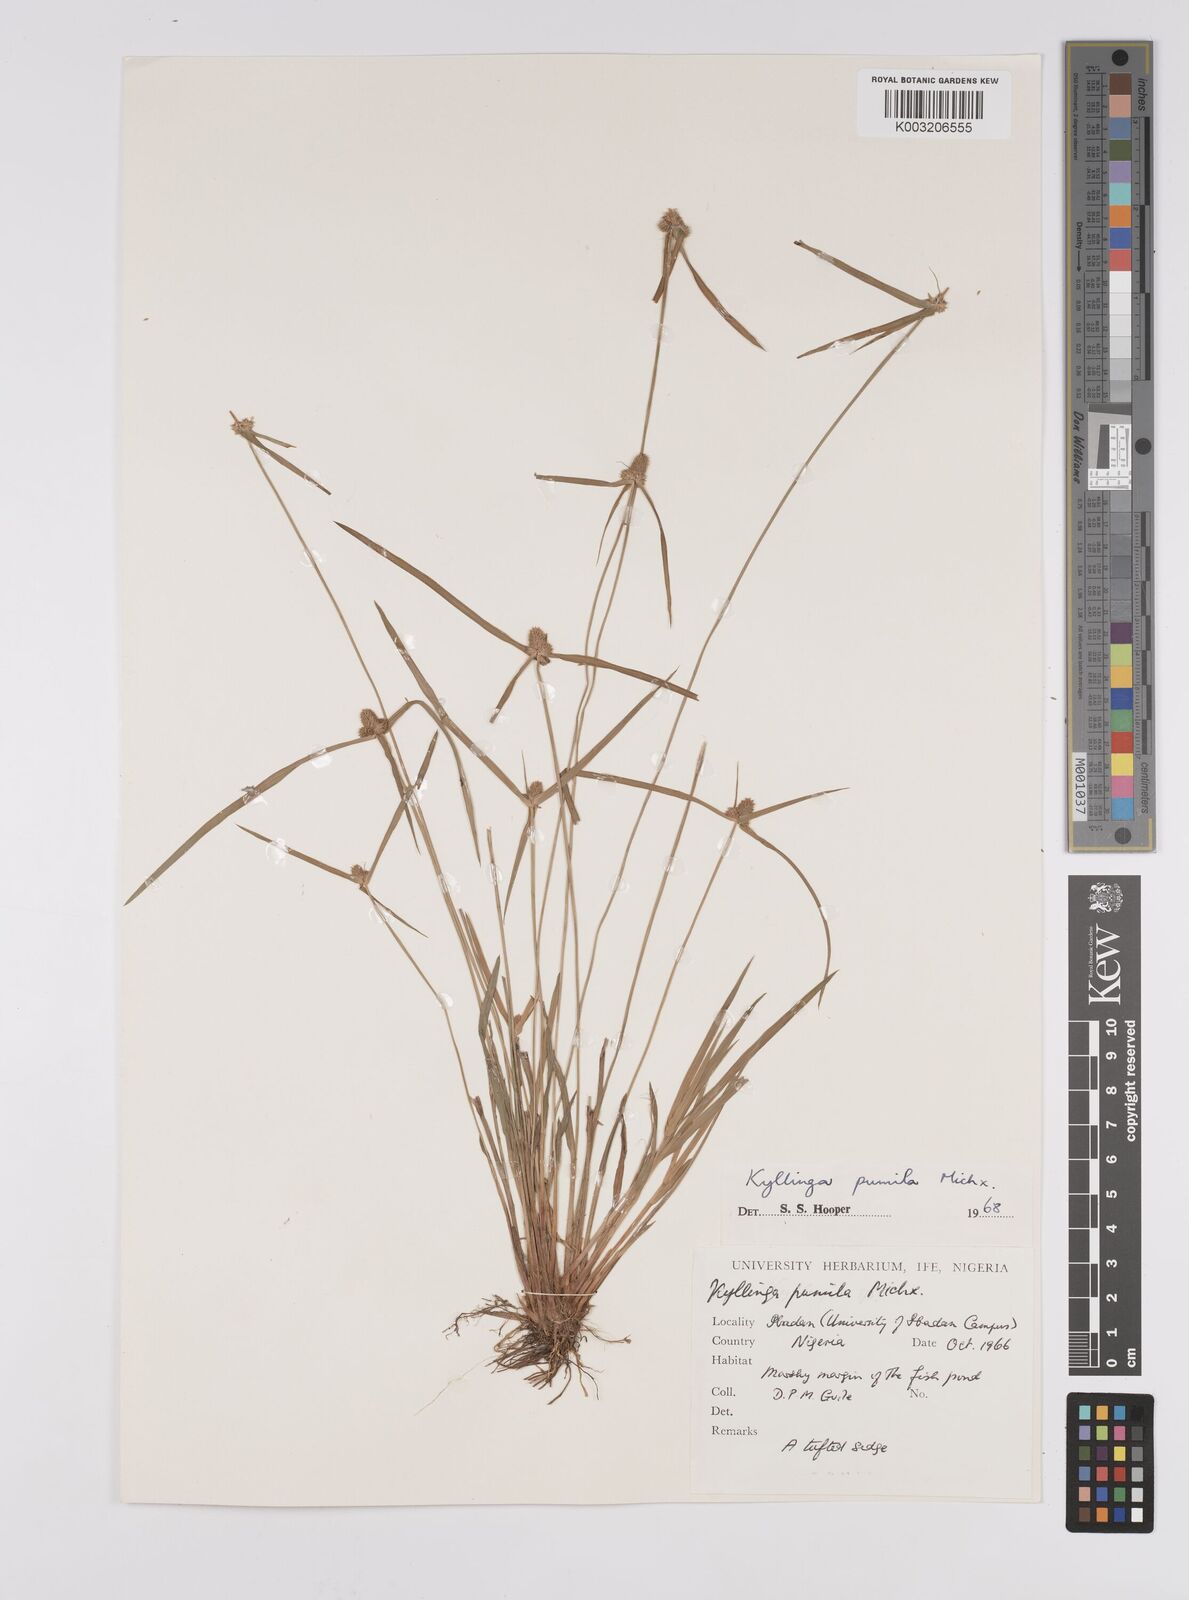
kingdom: Plantae
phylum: Tracheophyta
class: Liliopsida
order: Poales
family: Cyperaceae
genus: Cyperus
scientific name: Cyperus
